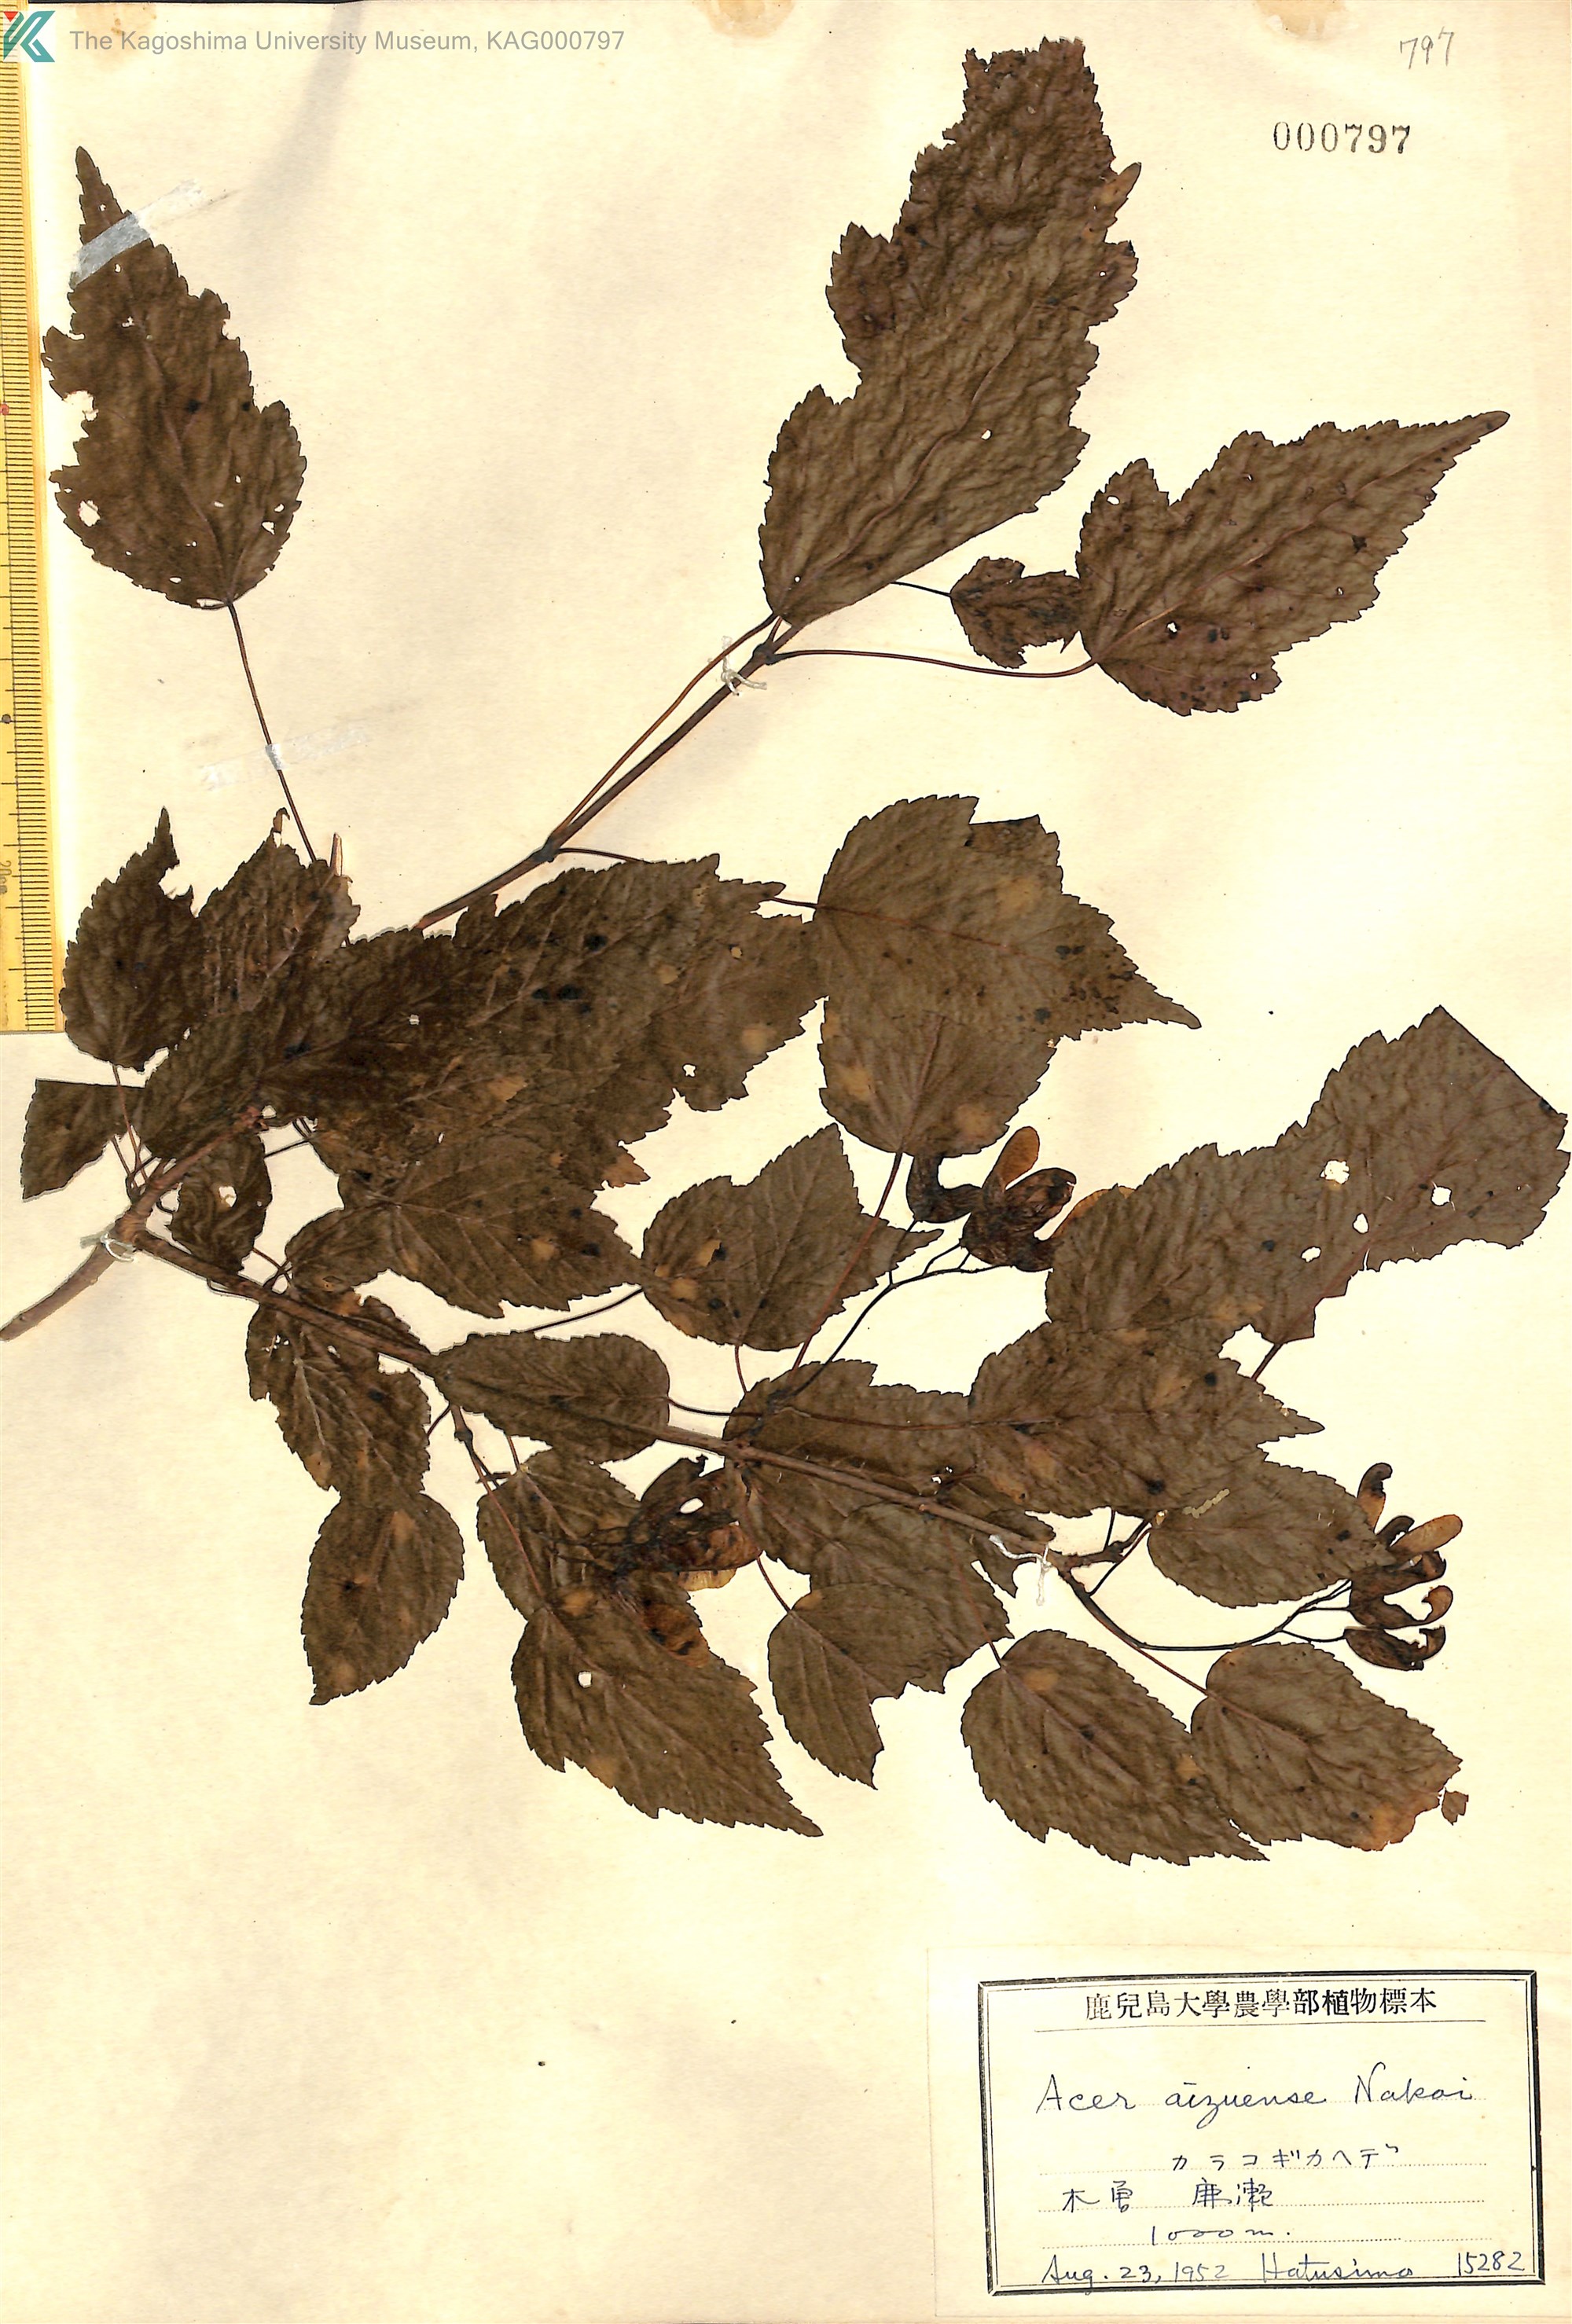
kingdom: Plantae
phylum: Tracheophyta
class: Magnoliopsida
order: Sapindales
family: Sapindaceae
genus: Acer
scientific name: Acer tataricum
